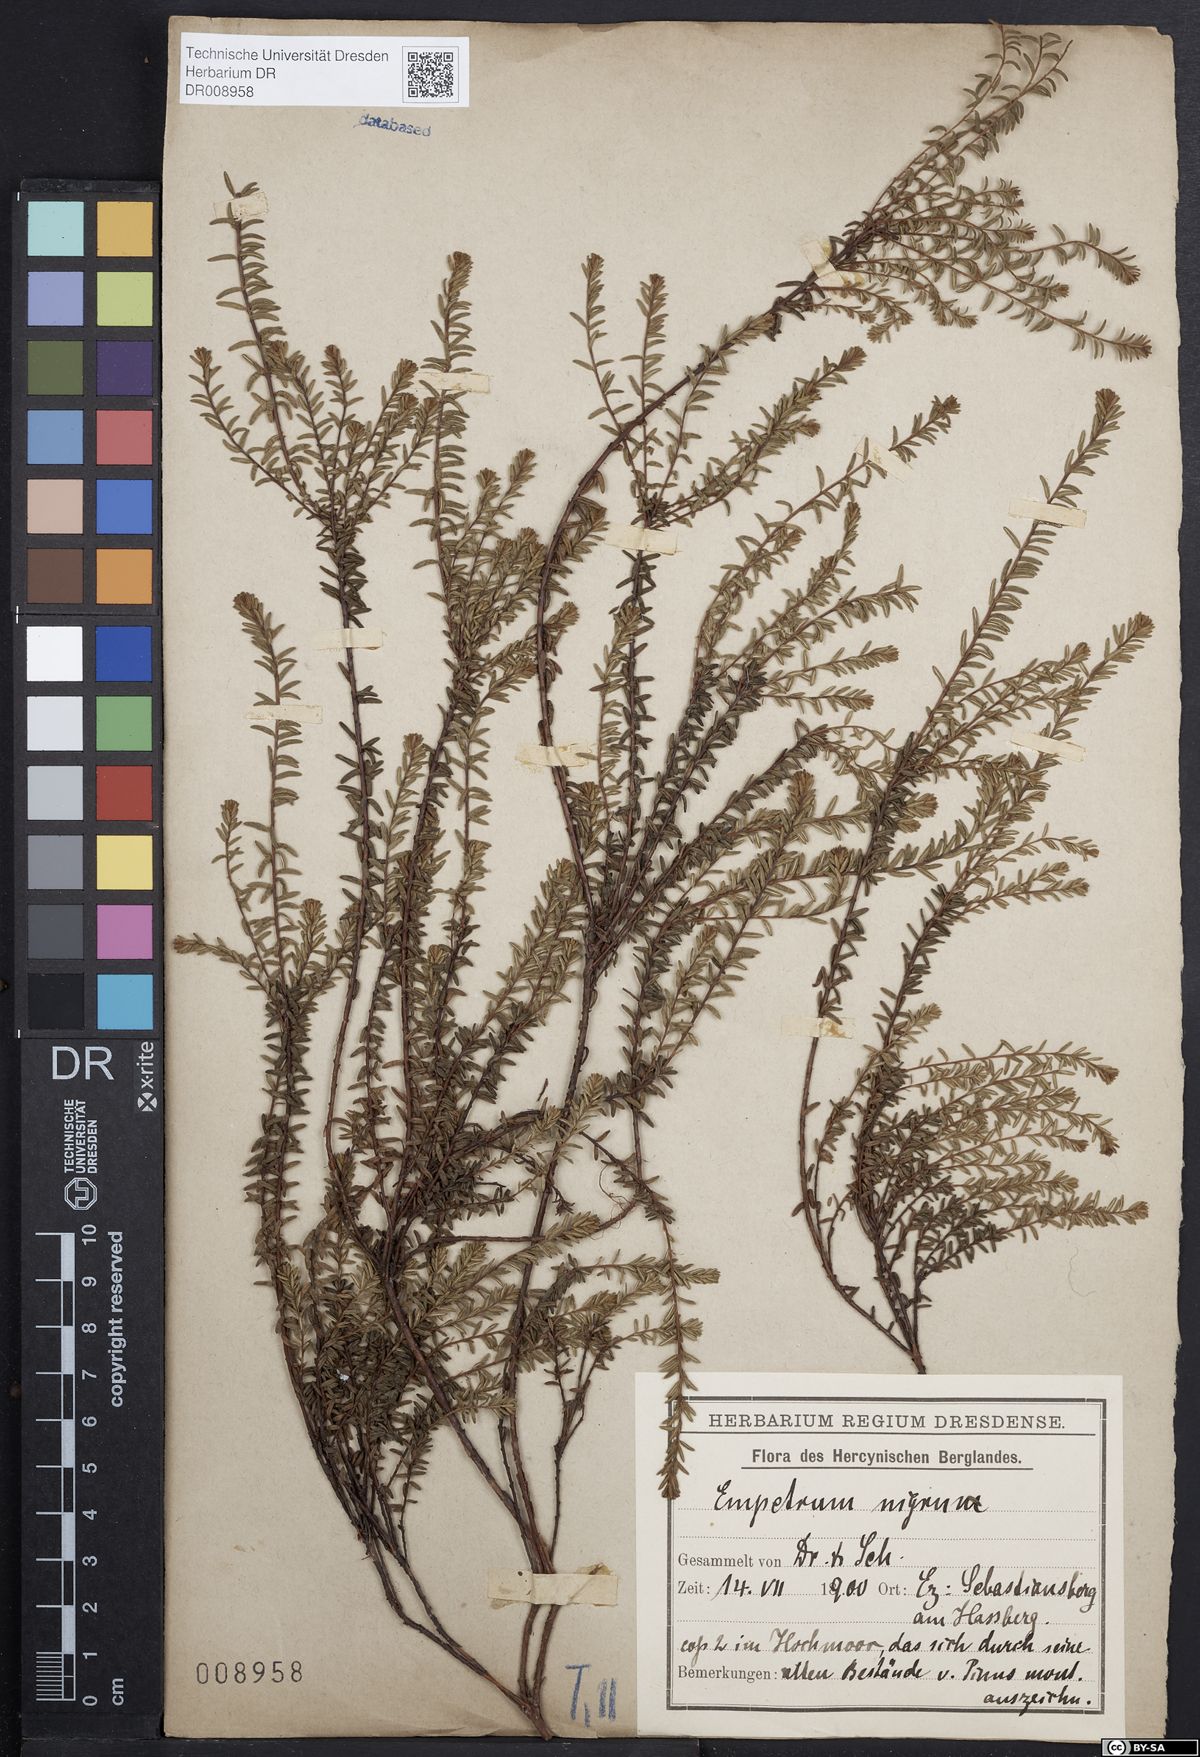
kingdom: Plantae
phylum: Tracheophyta
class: Magnoliopsida
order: Ericales
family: Ericaceae
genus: Empetrum
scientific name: Empetrum nigrum
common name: Black crowberry
